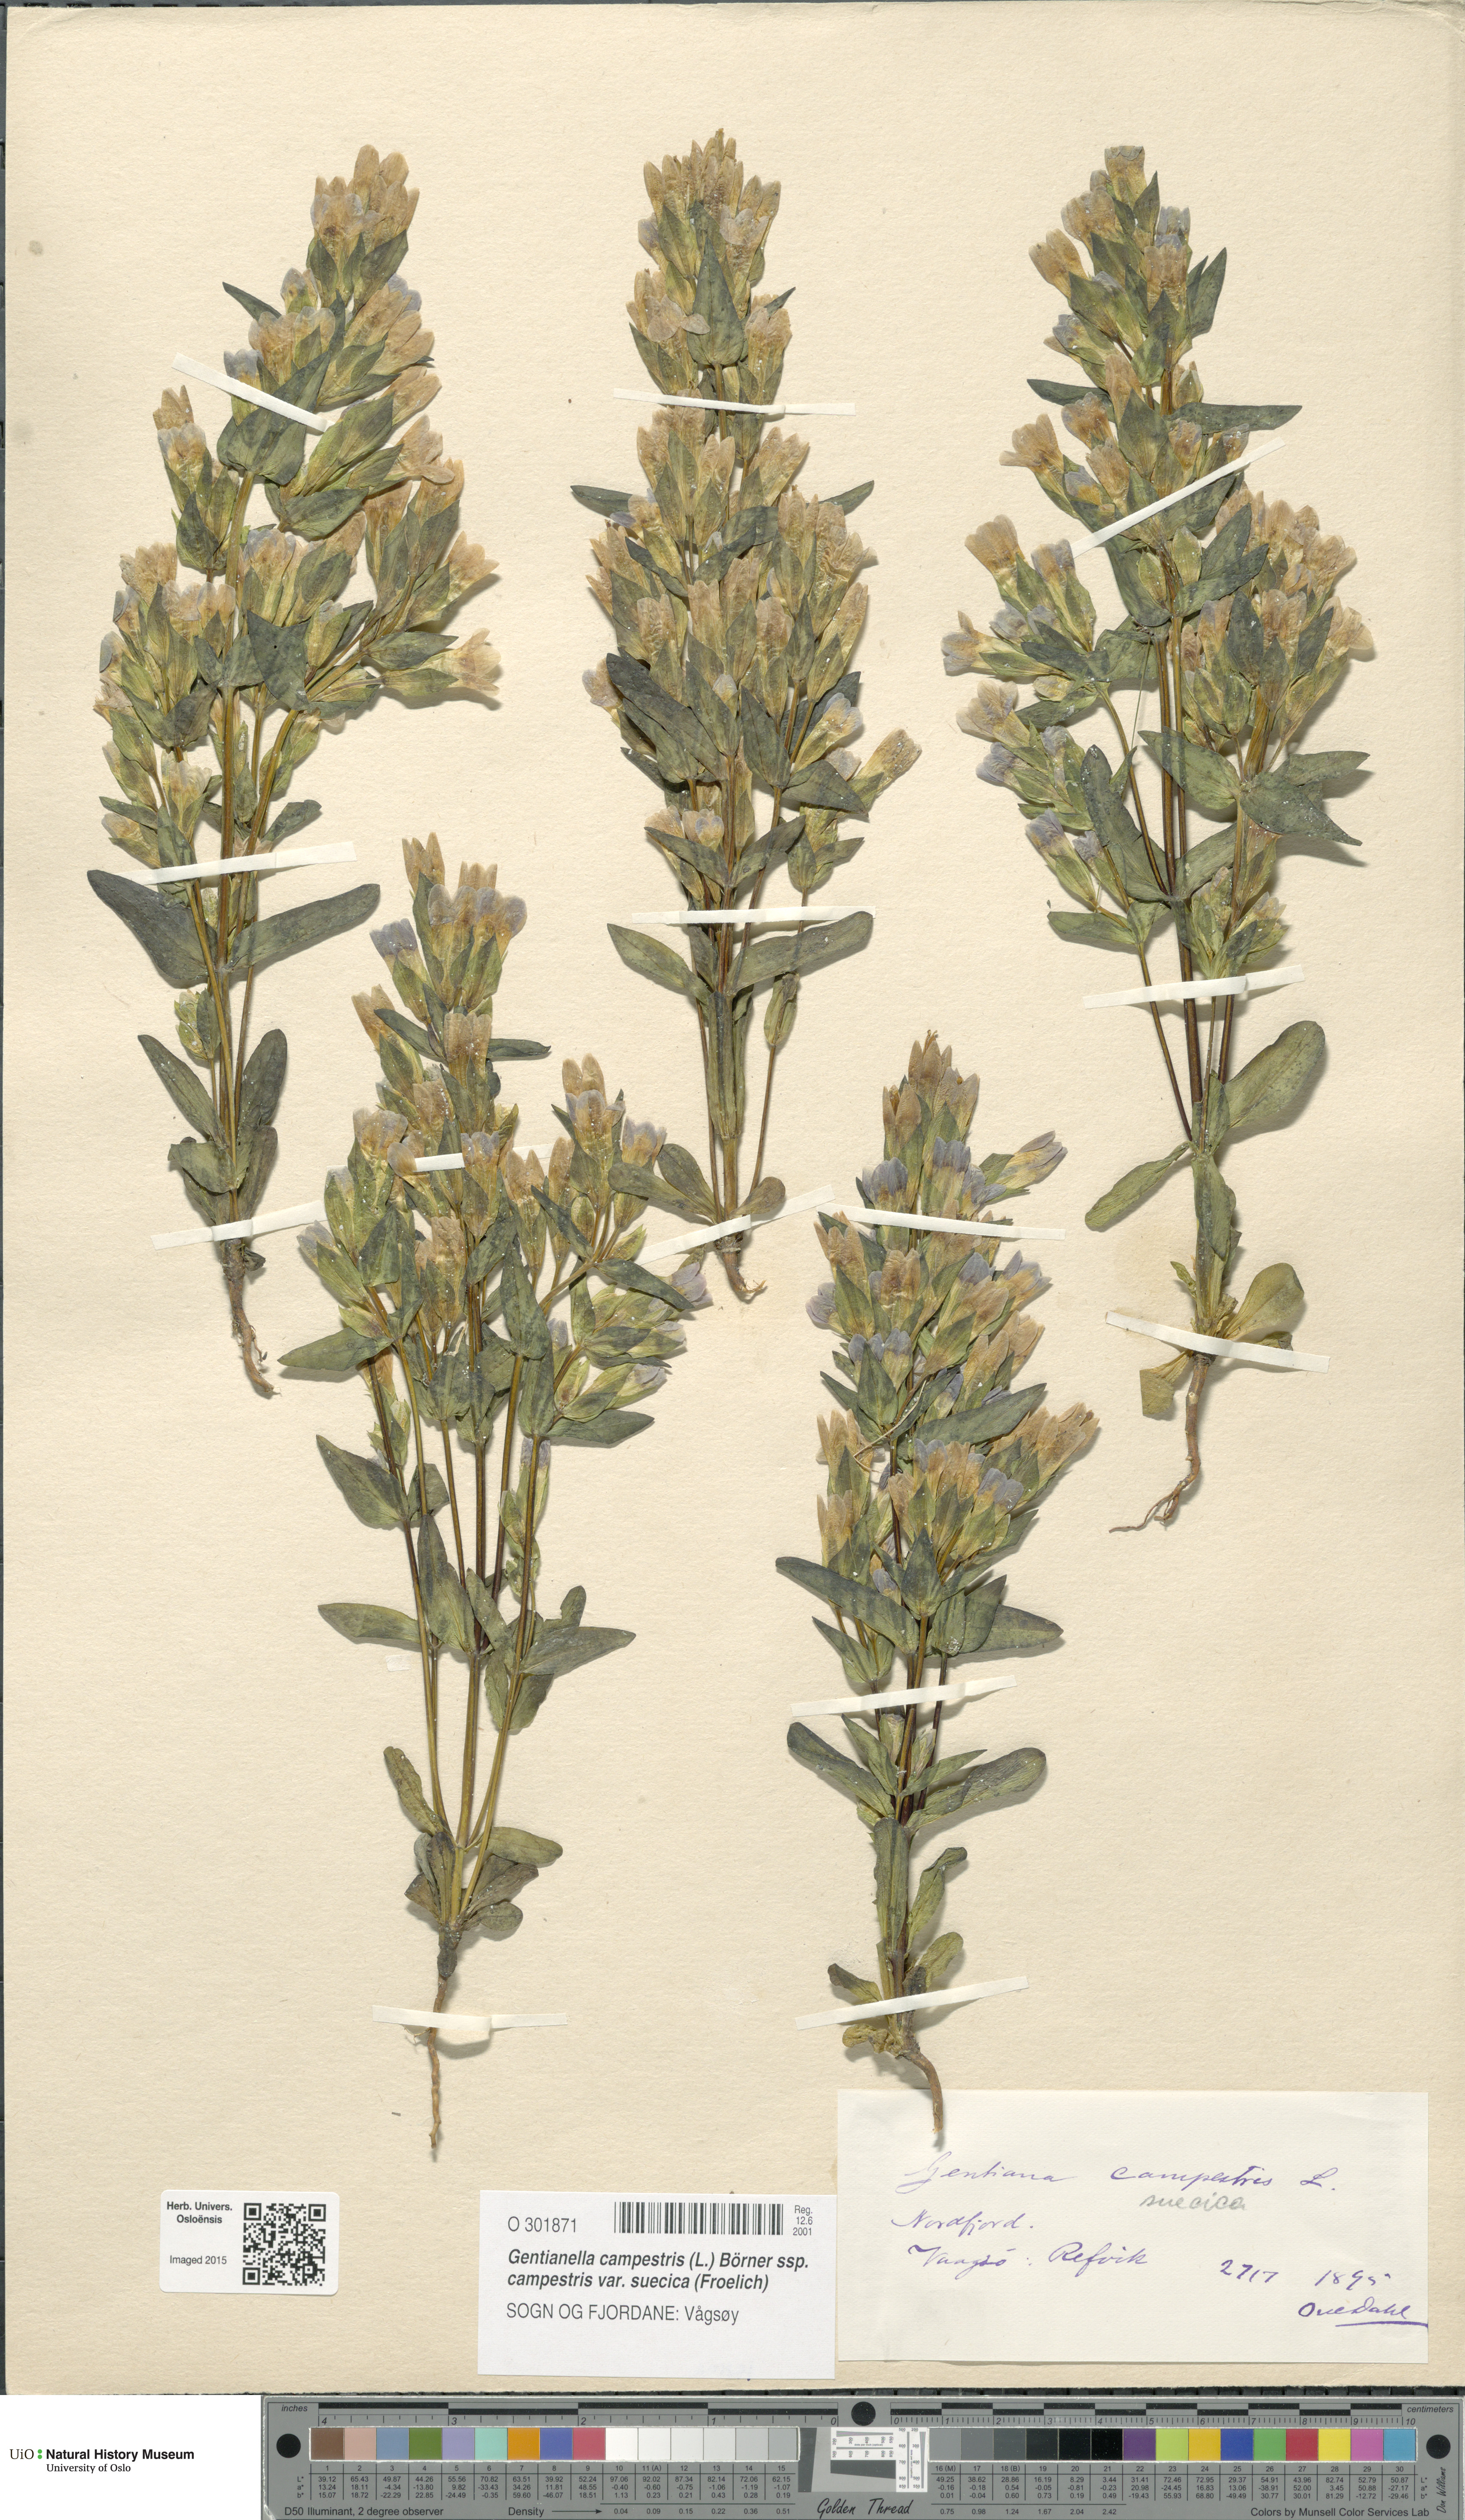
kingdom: Plantae
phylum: Tracheophyta
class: Magnoliopsida
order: Gentianales
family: Gentianaceae
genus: Gentianella
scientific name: Gentianella campestris
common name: Field gentian
